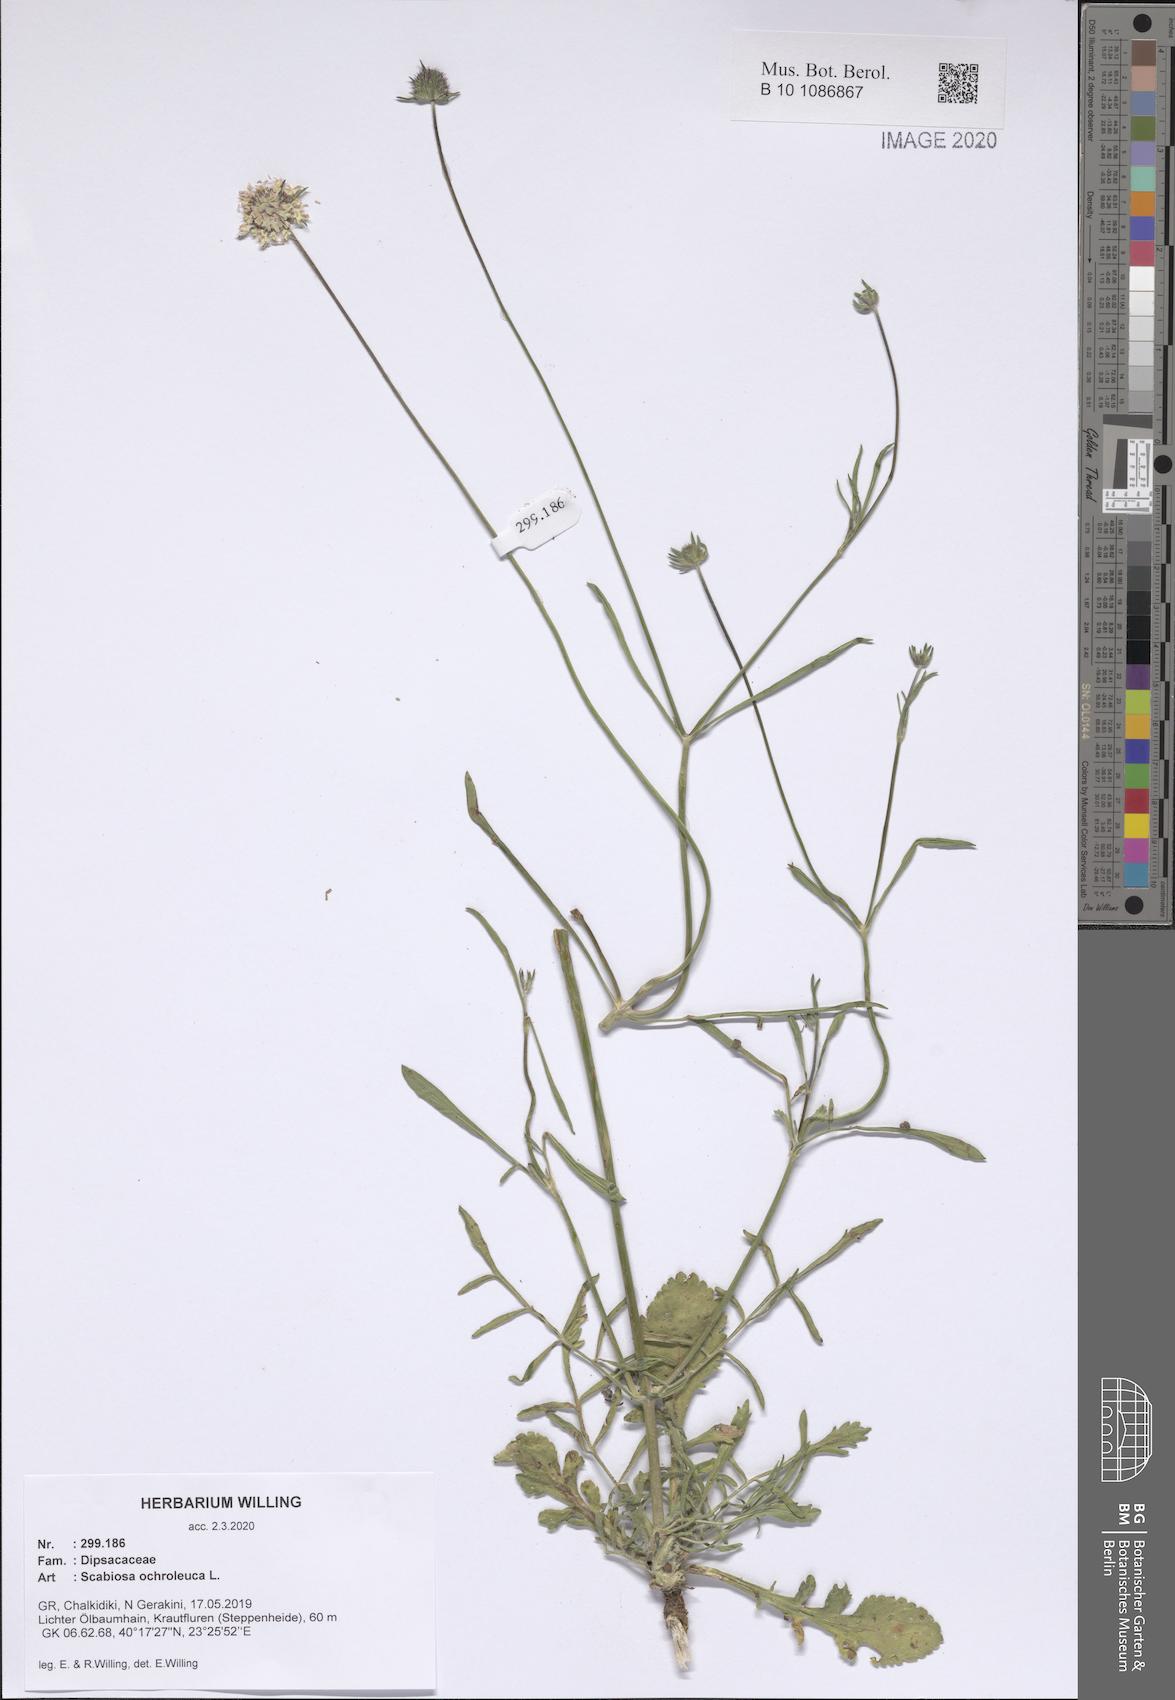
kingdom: Plantae
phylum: Tracheophyta
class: Magnoliopsida
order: Dipsacales
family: Caprifoliaceae
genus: Scabiosa
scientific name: Scabiosa ochroleuca
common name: Cream pincushions
